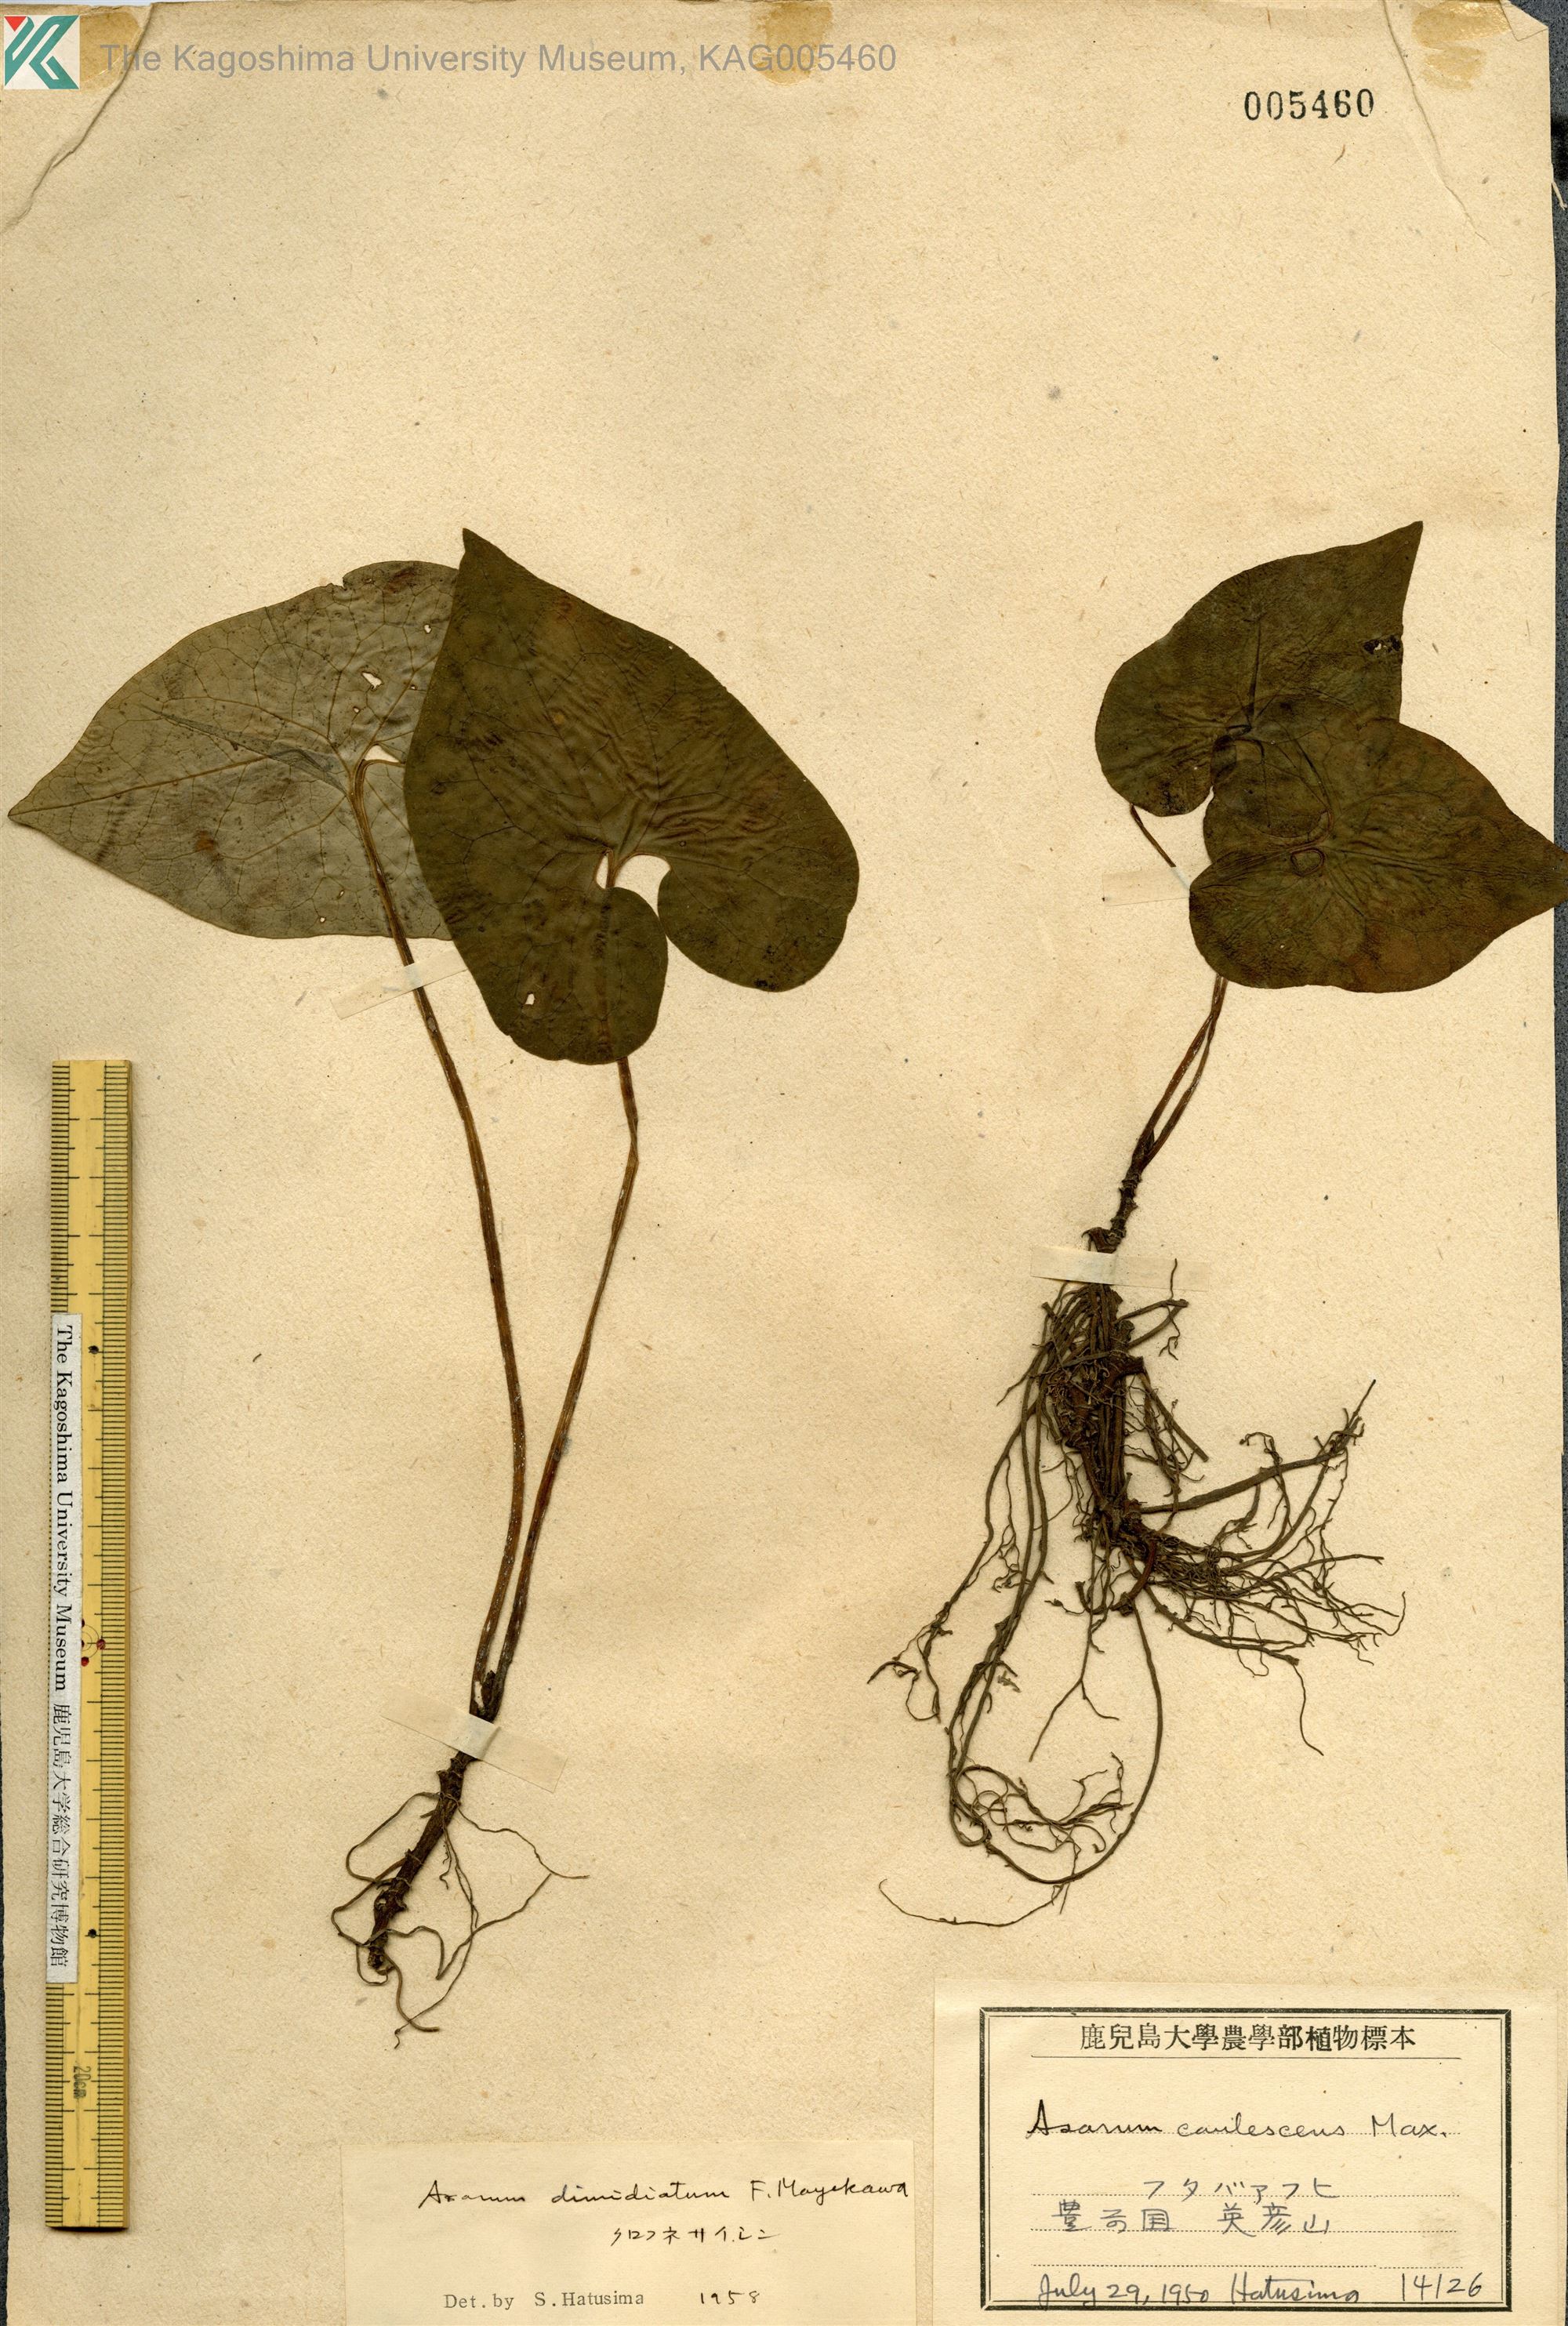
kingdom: Plantae
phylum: Tracheophyta
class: Magnoliopsida
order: Piperales
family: Aristolochiaceae
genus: Asarum
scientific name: Asarum sieboldii
